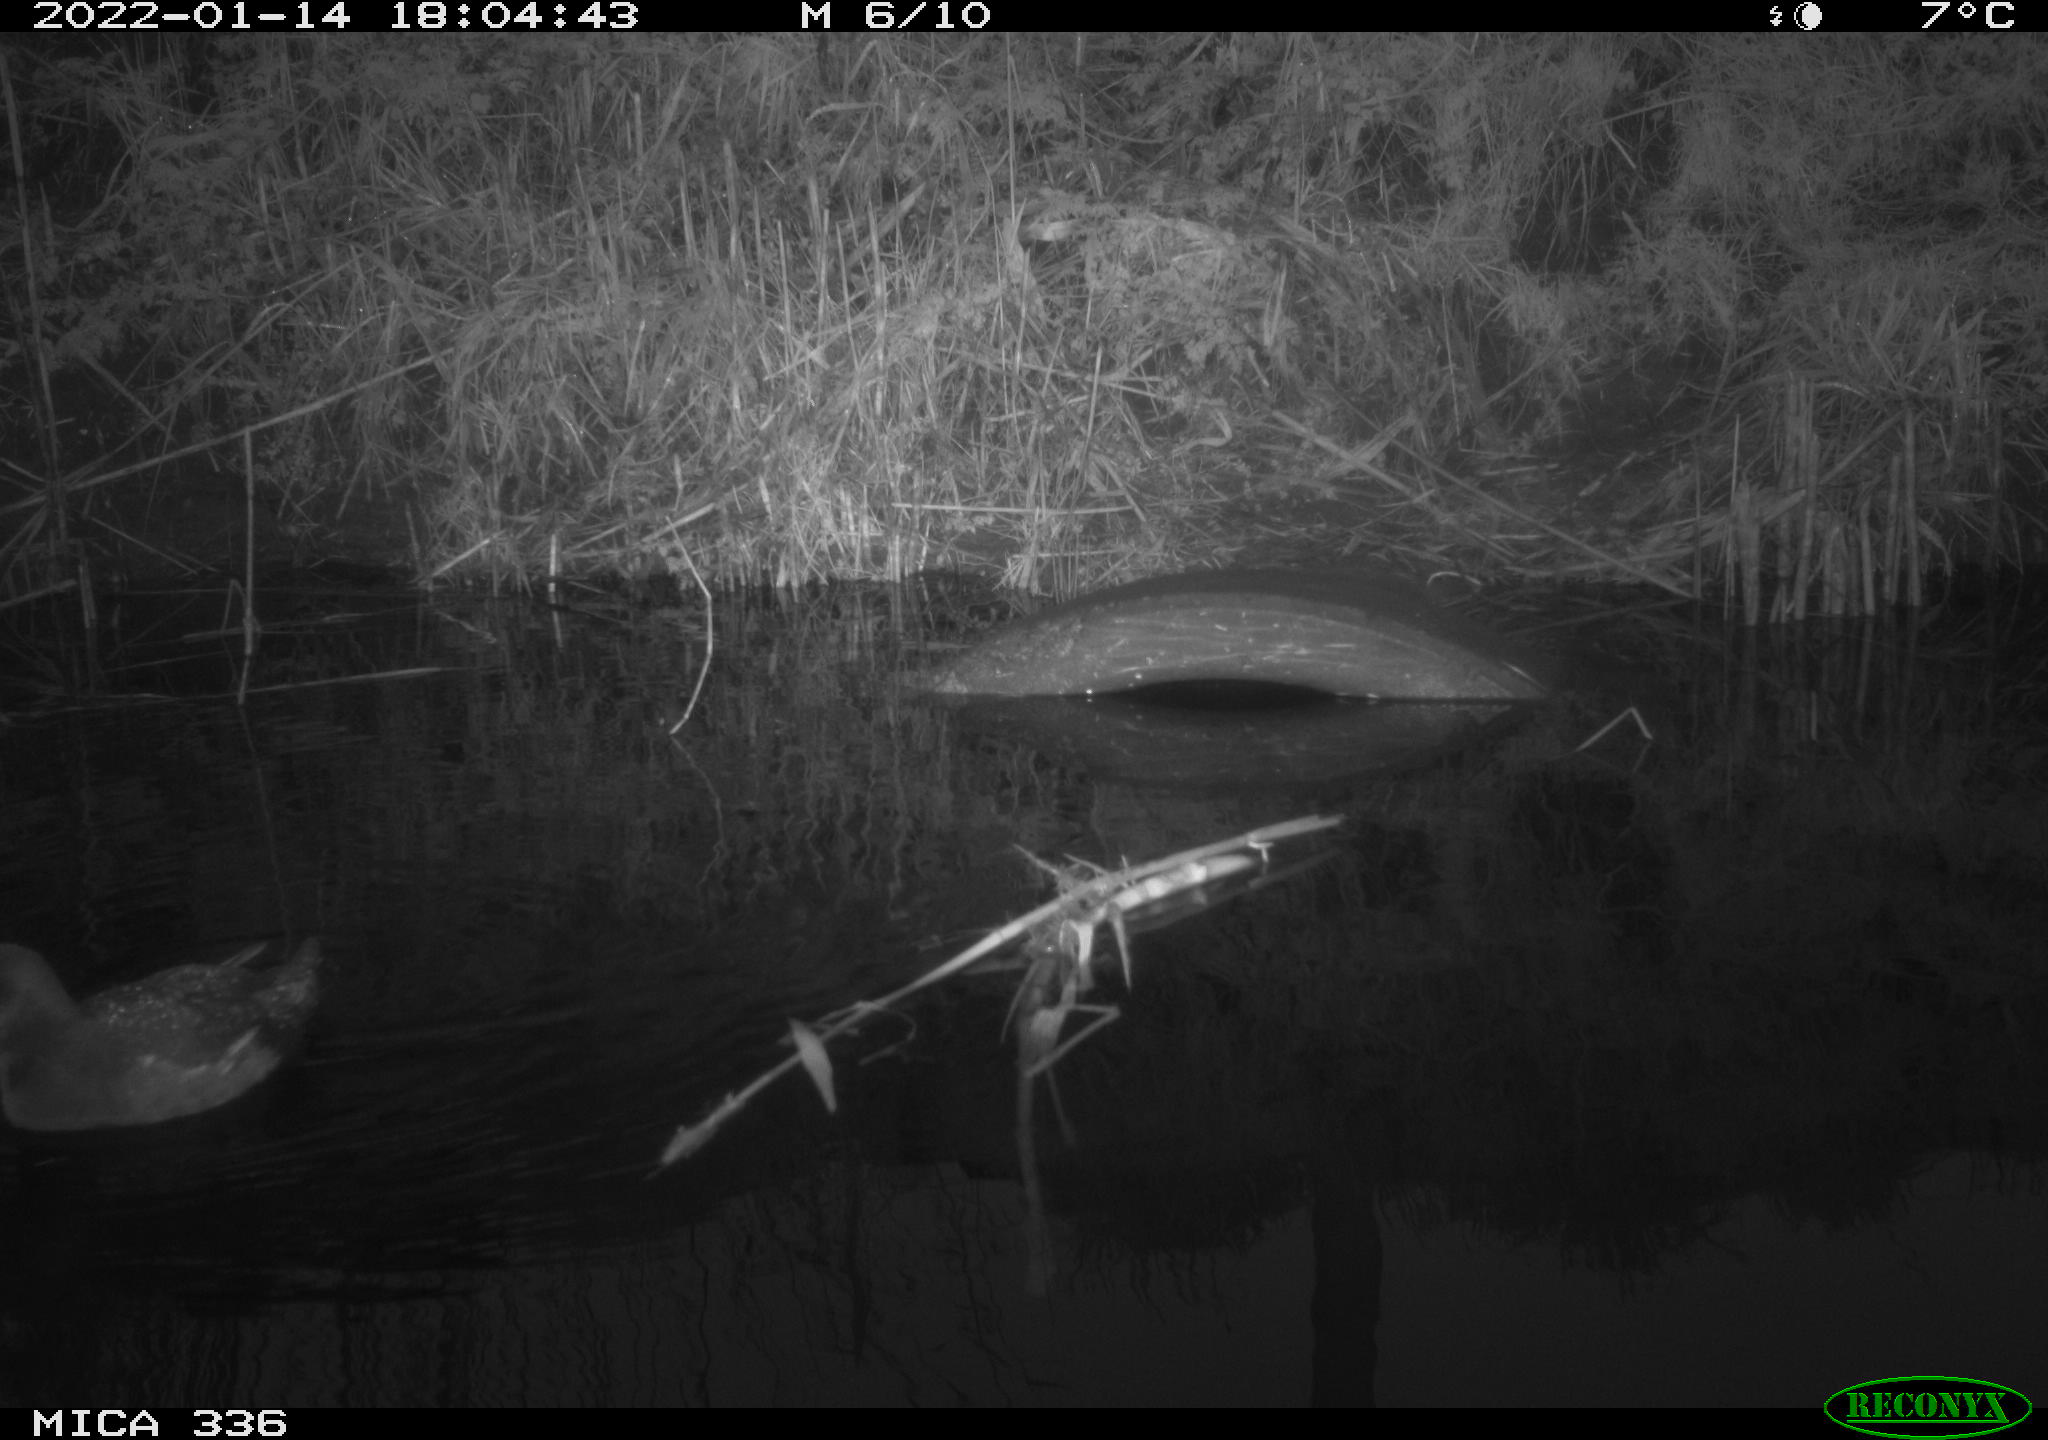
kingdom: Animalia
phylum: Chordata
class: Aves
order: Gruiformes
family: Rallidae
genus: Gallinula
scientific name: Gallinula chloropus
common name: Common moorhen
